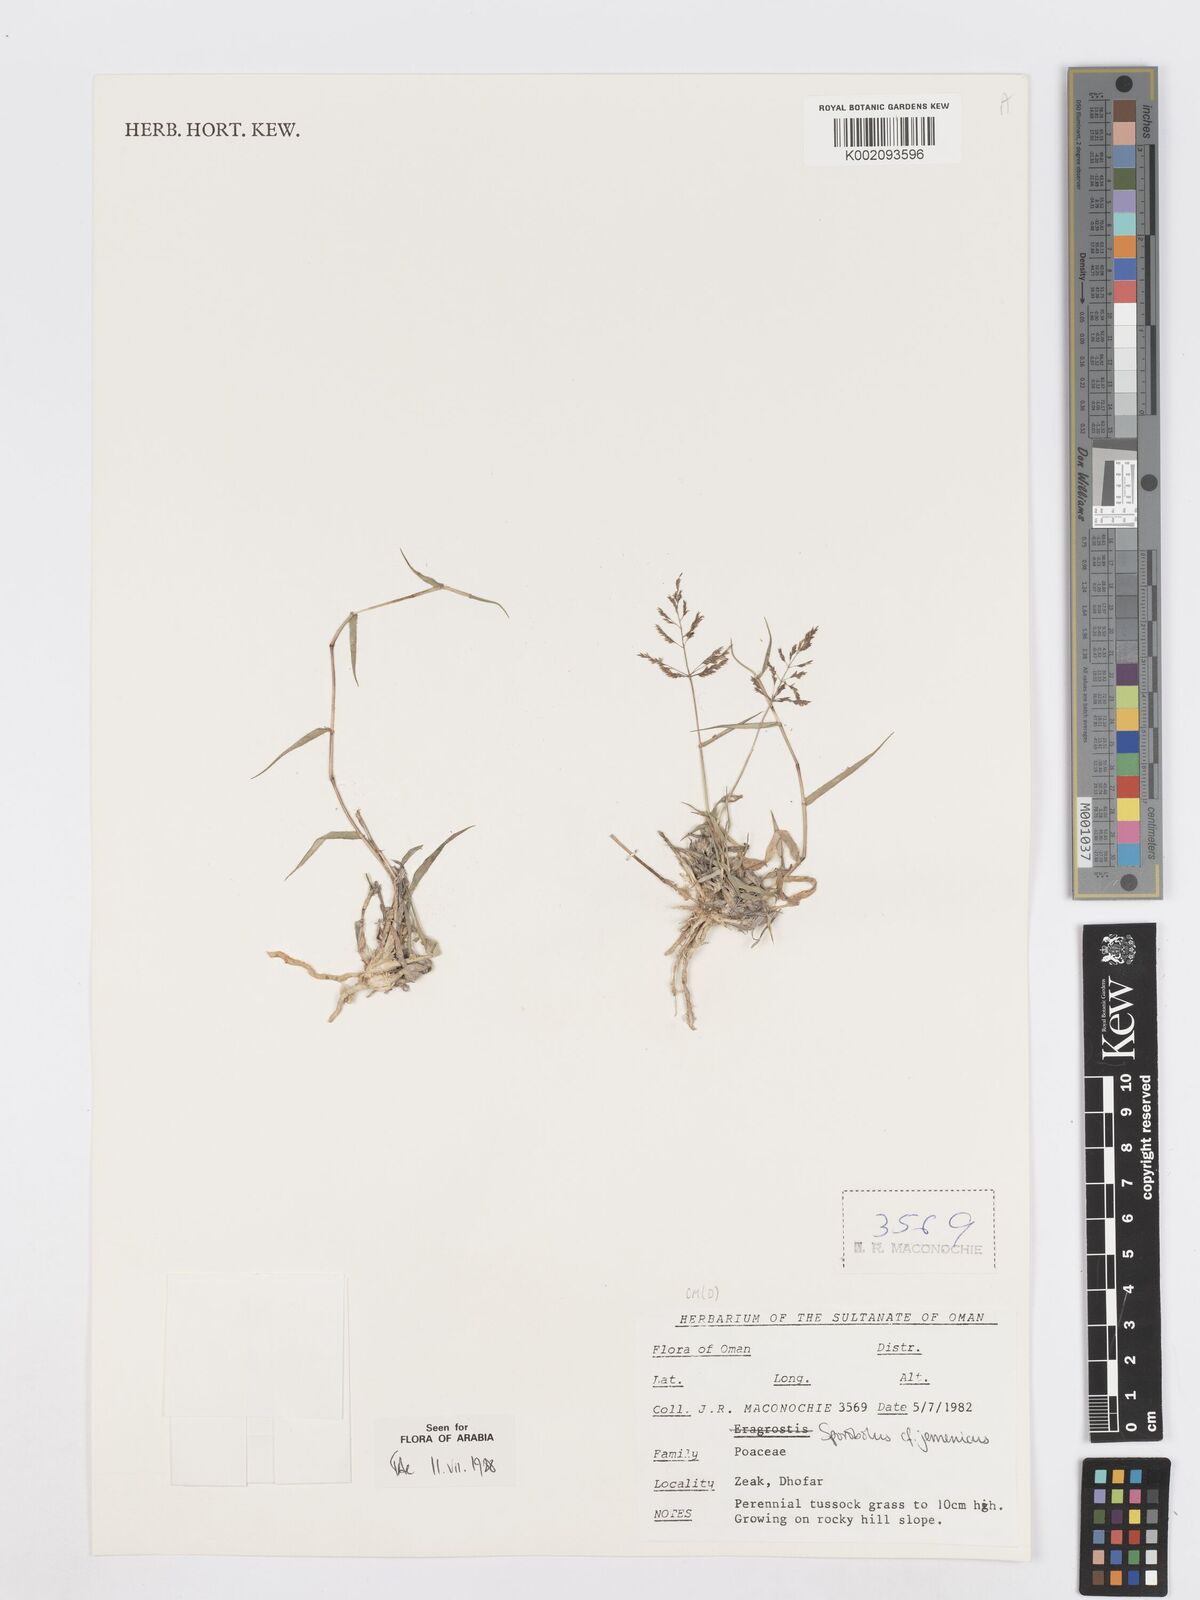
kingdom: Plantae
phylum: Tracheophyta
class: Liliopsida
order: Poales
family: Poaceae
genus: Sporobolus
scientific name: Sporobolus gloeoclados
